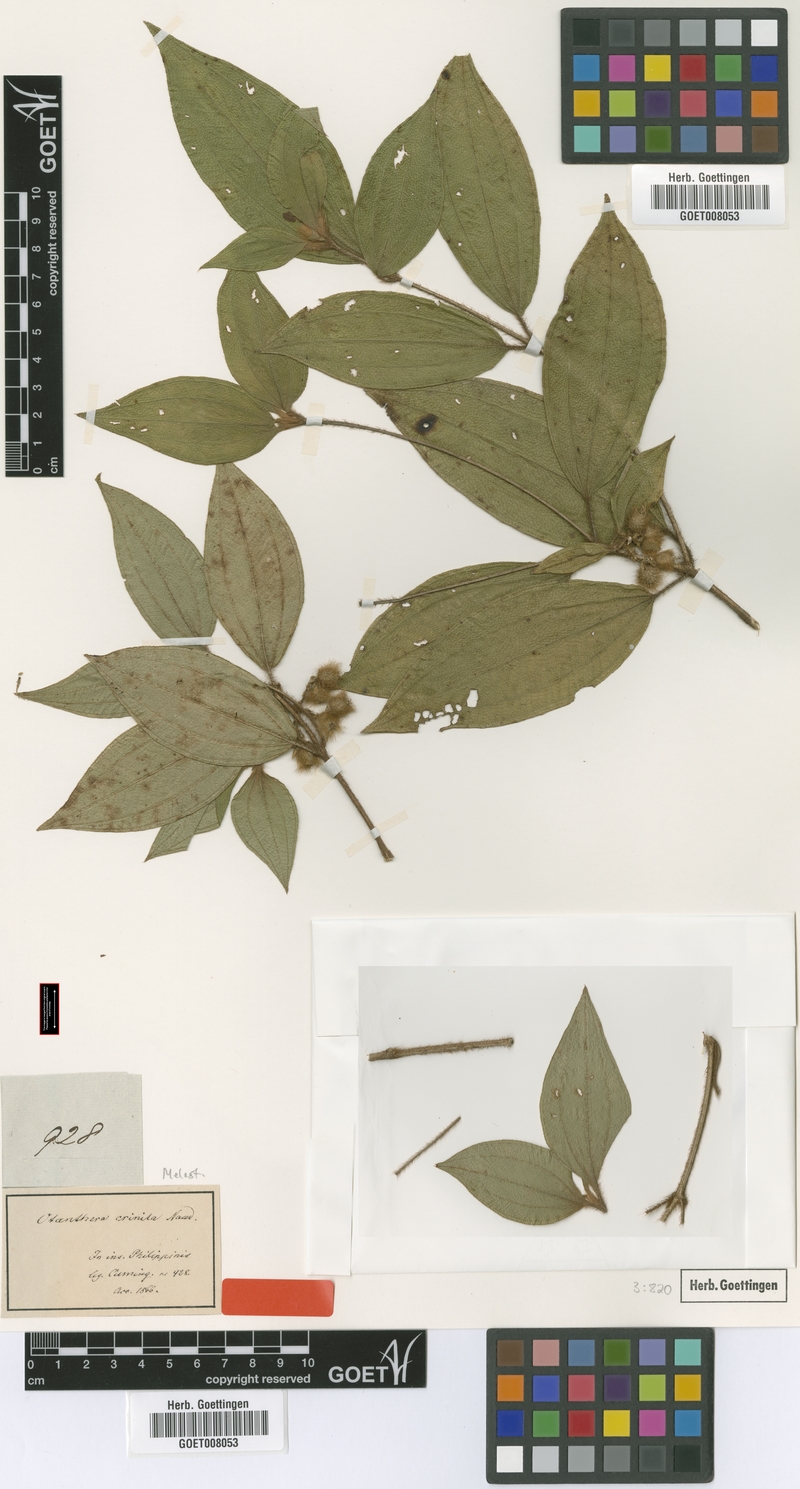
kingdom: Plantae
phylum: Tracheophyta
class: Magnoliopsida
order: Myrtales
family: Melastomataceae
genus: Melastoma
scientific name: Melastoma cyanoides
